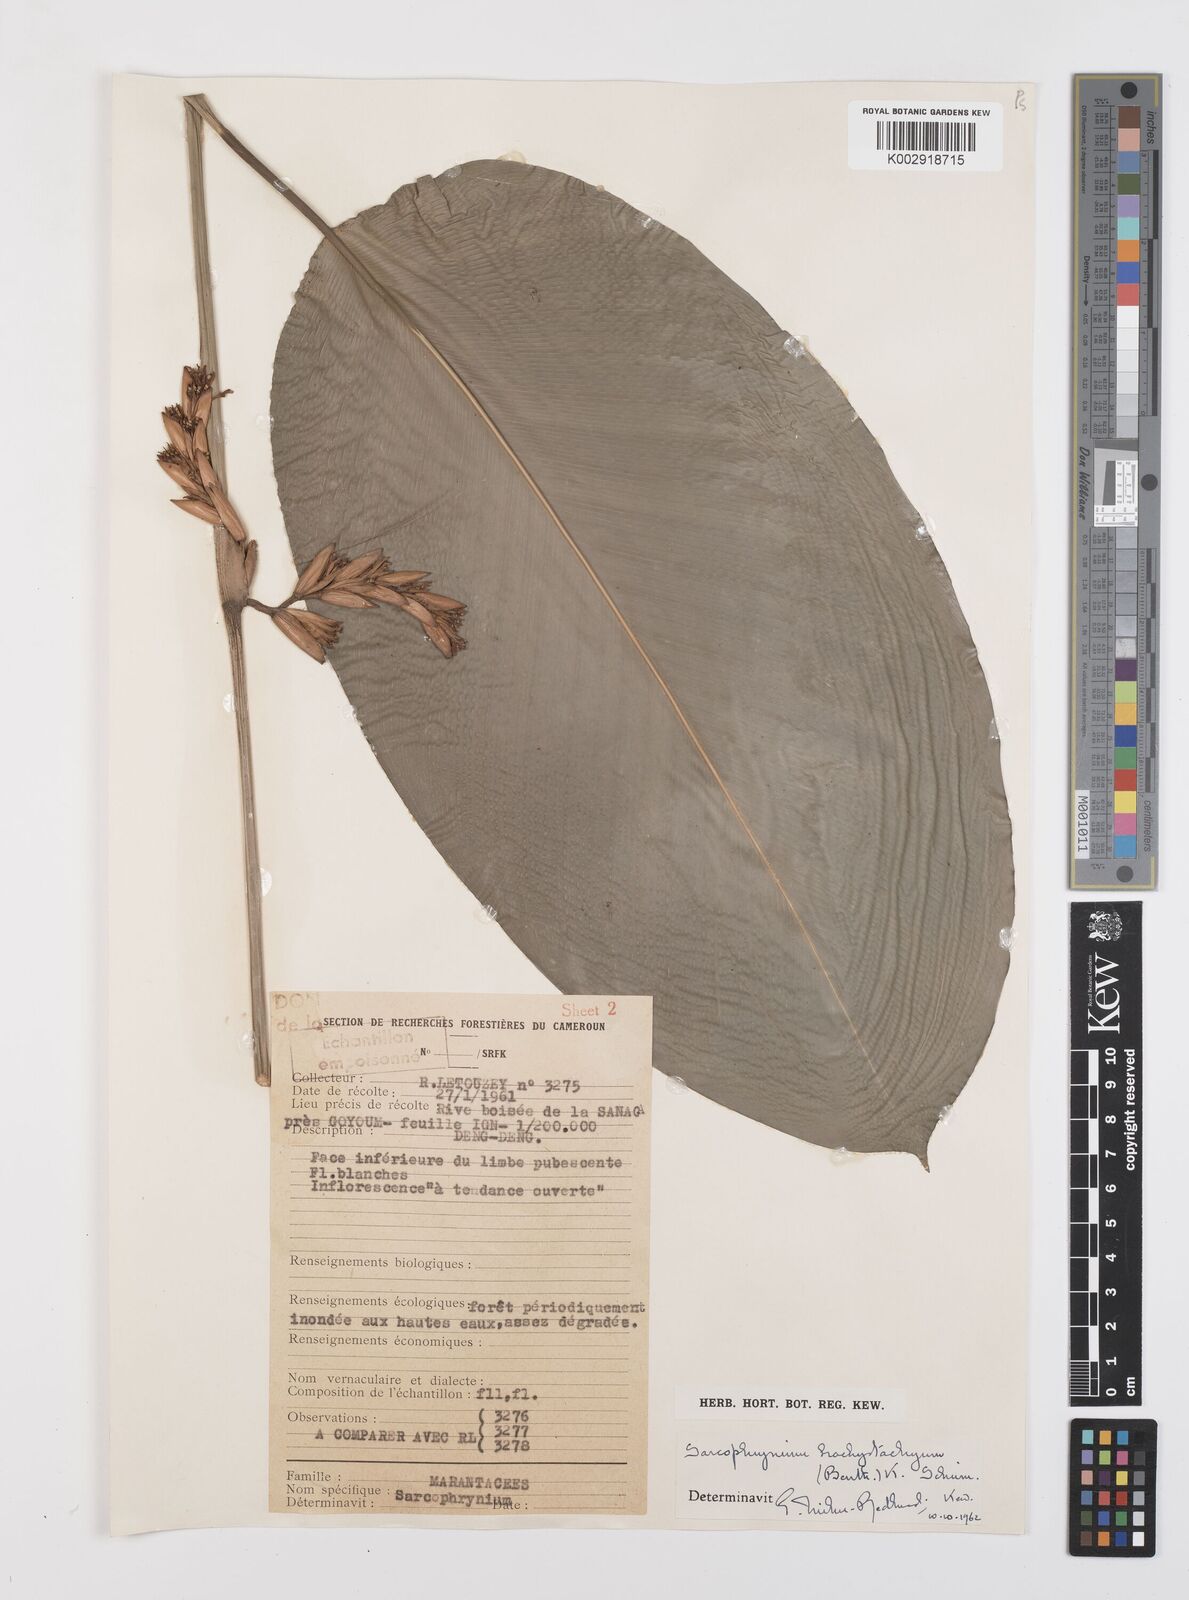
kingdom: Plantae
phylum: Tracheophyta
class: Liliopsida
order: Zingiberales
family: Marantaceae
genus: Sarcophrynium
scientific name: Sarcophrynium brachystachyum
